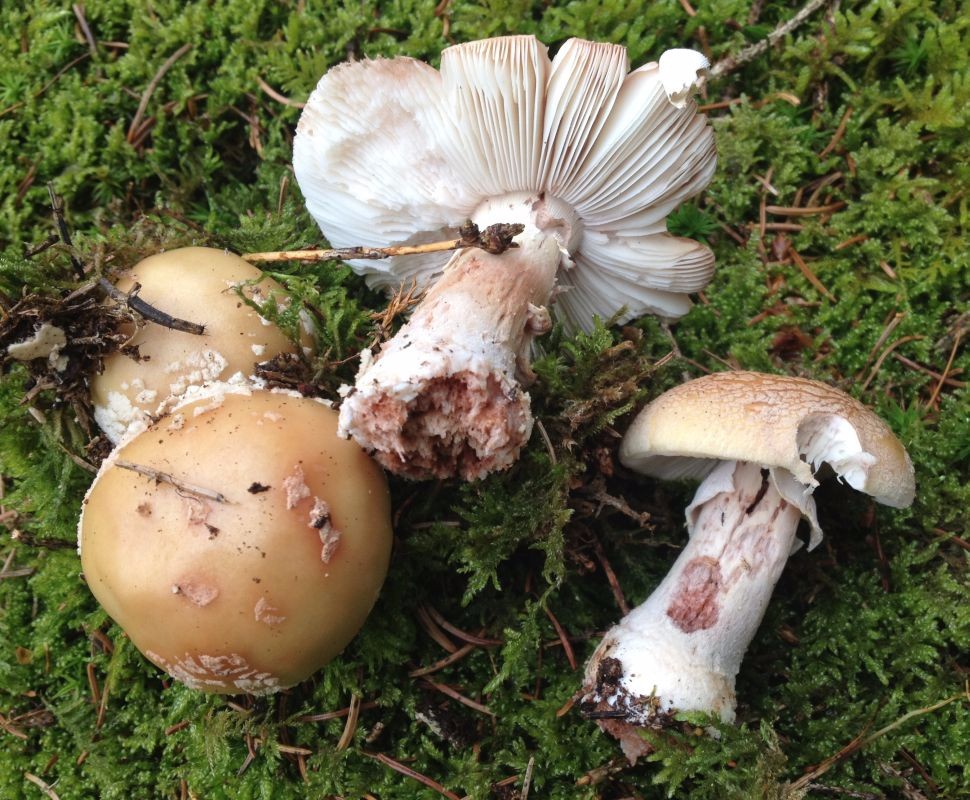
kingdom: Fungi
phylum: Basidiomycota
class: Agaricomycetes
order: Agaricales
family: Amanitaceae
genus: Amanita
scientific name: Amanita rubescens
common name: rødmende fluesvamp
